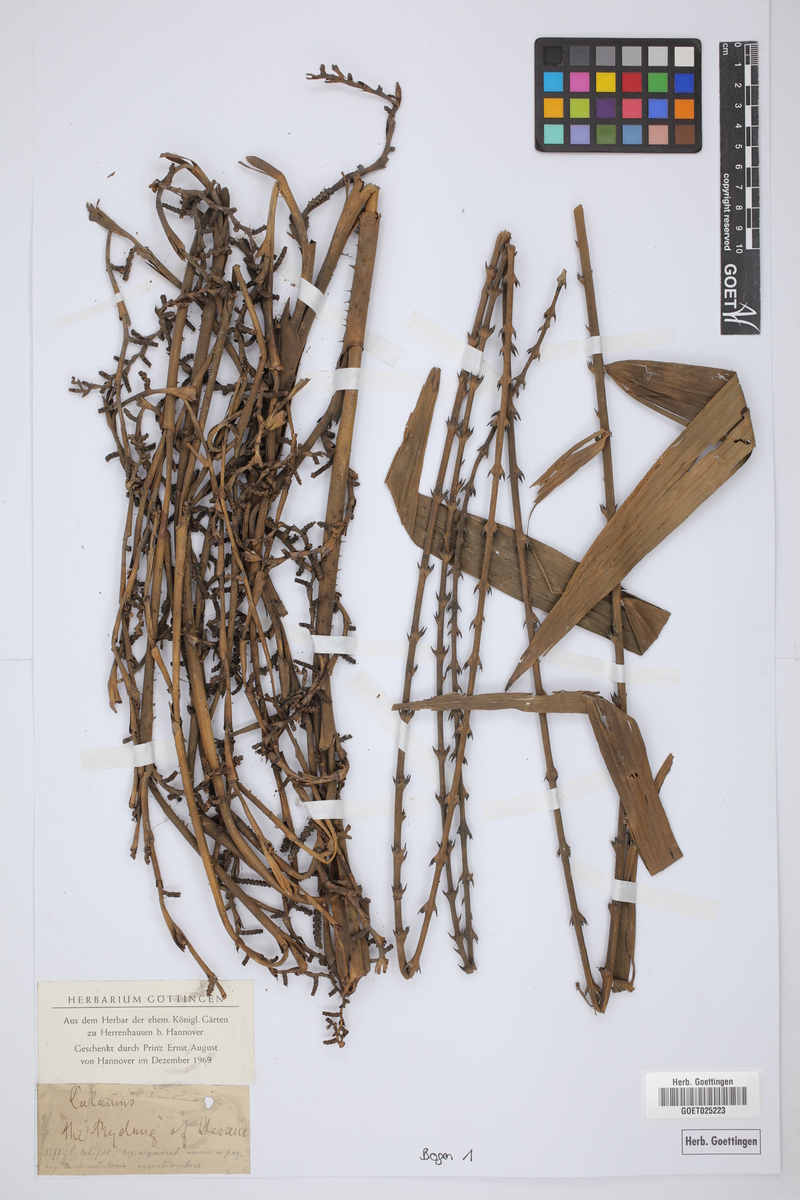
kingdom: Plantae
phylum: Tracheophyta
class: Liliopsida
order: Arecales
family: Arecaceae
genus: Calamus
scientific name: Calamus
